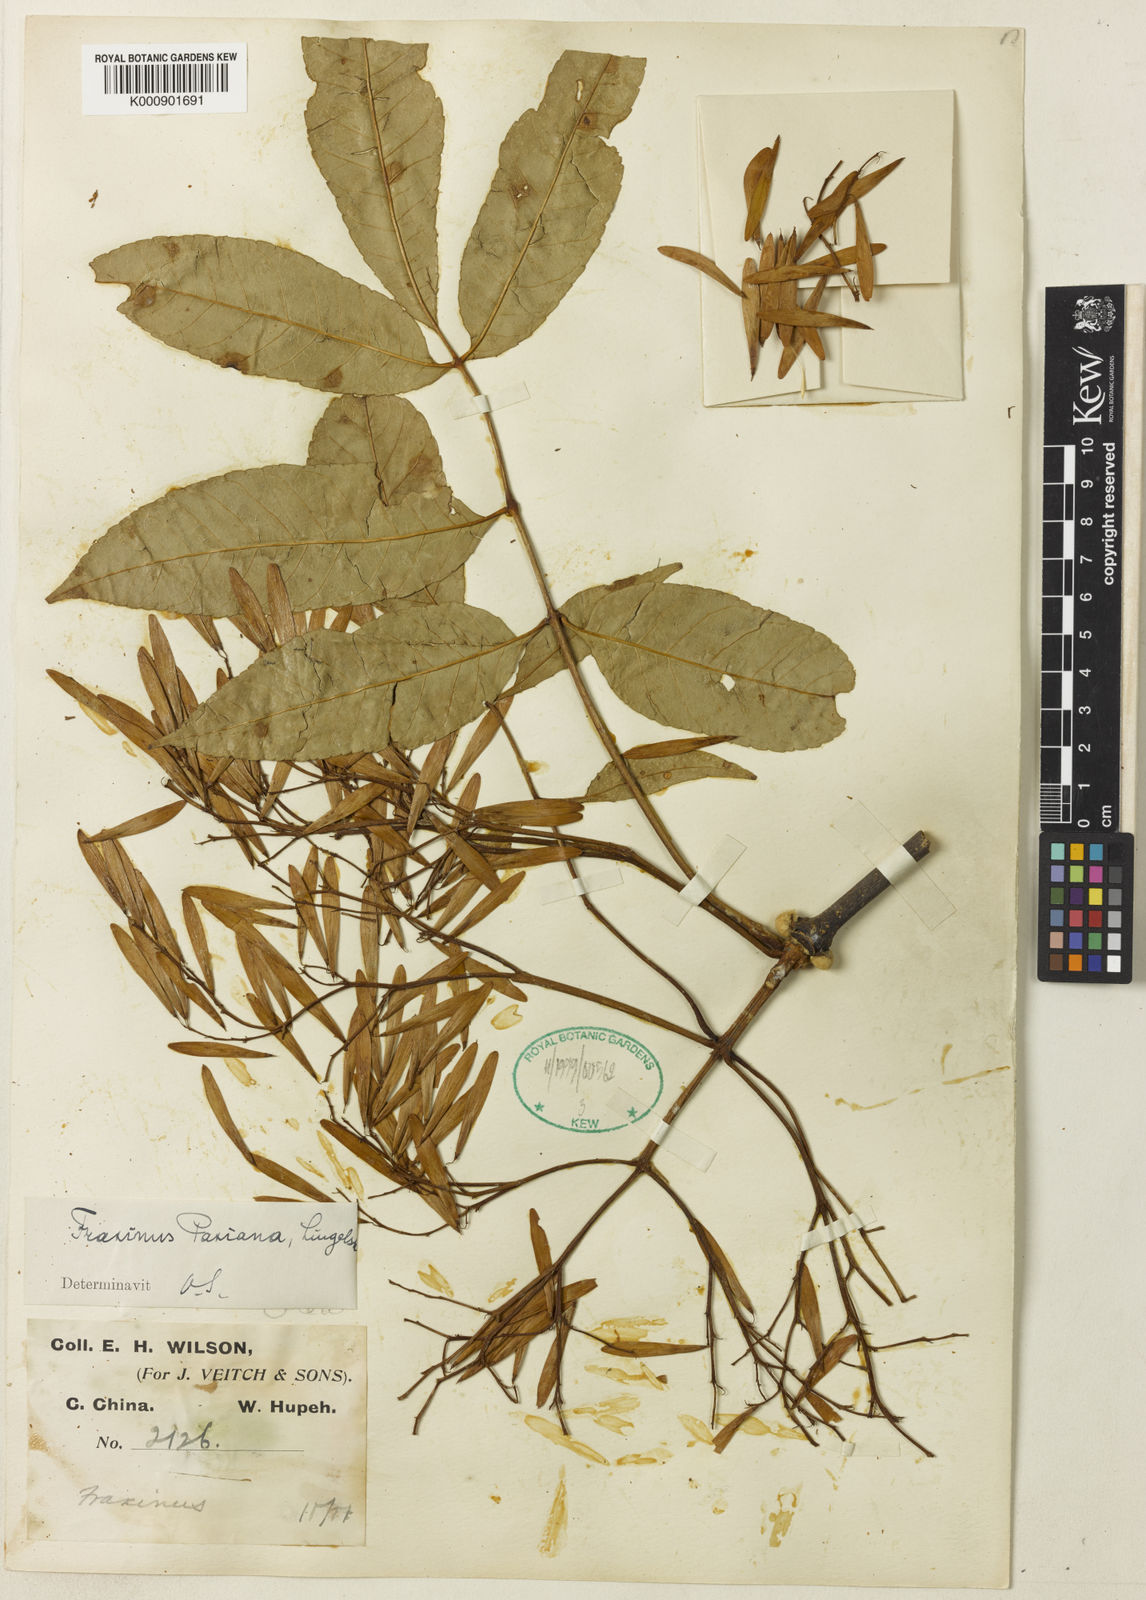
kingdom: Plantae
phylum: Tracheophyta
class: Magnoliopsida
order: Lamiales
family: Oleaceae
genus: Fraxinus
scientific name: Fraxinus paxiana
